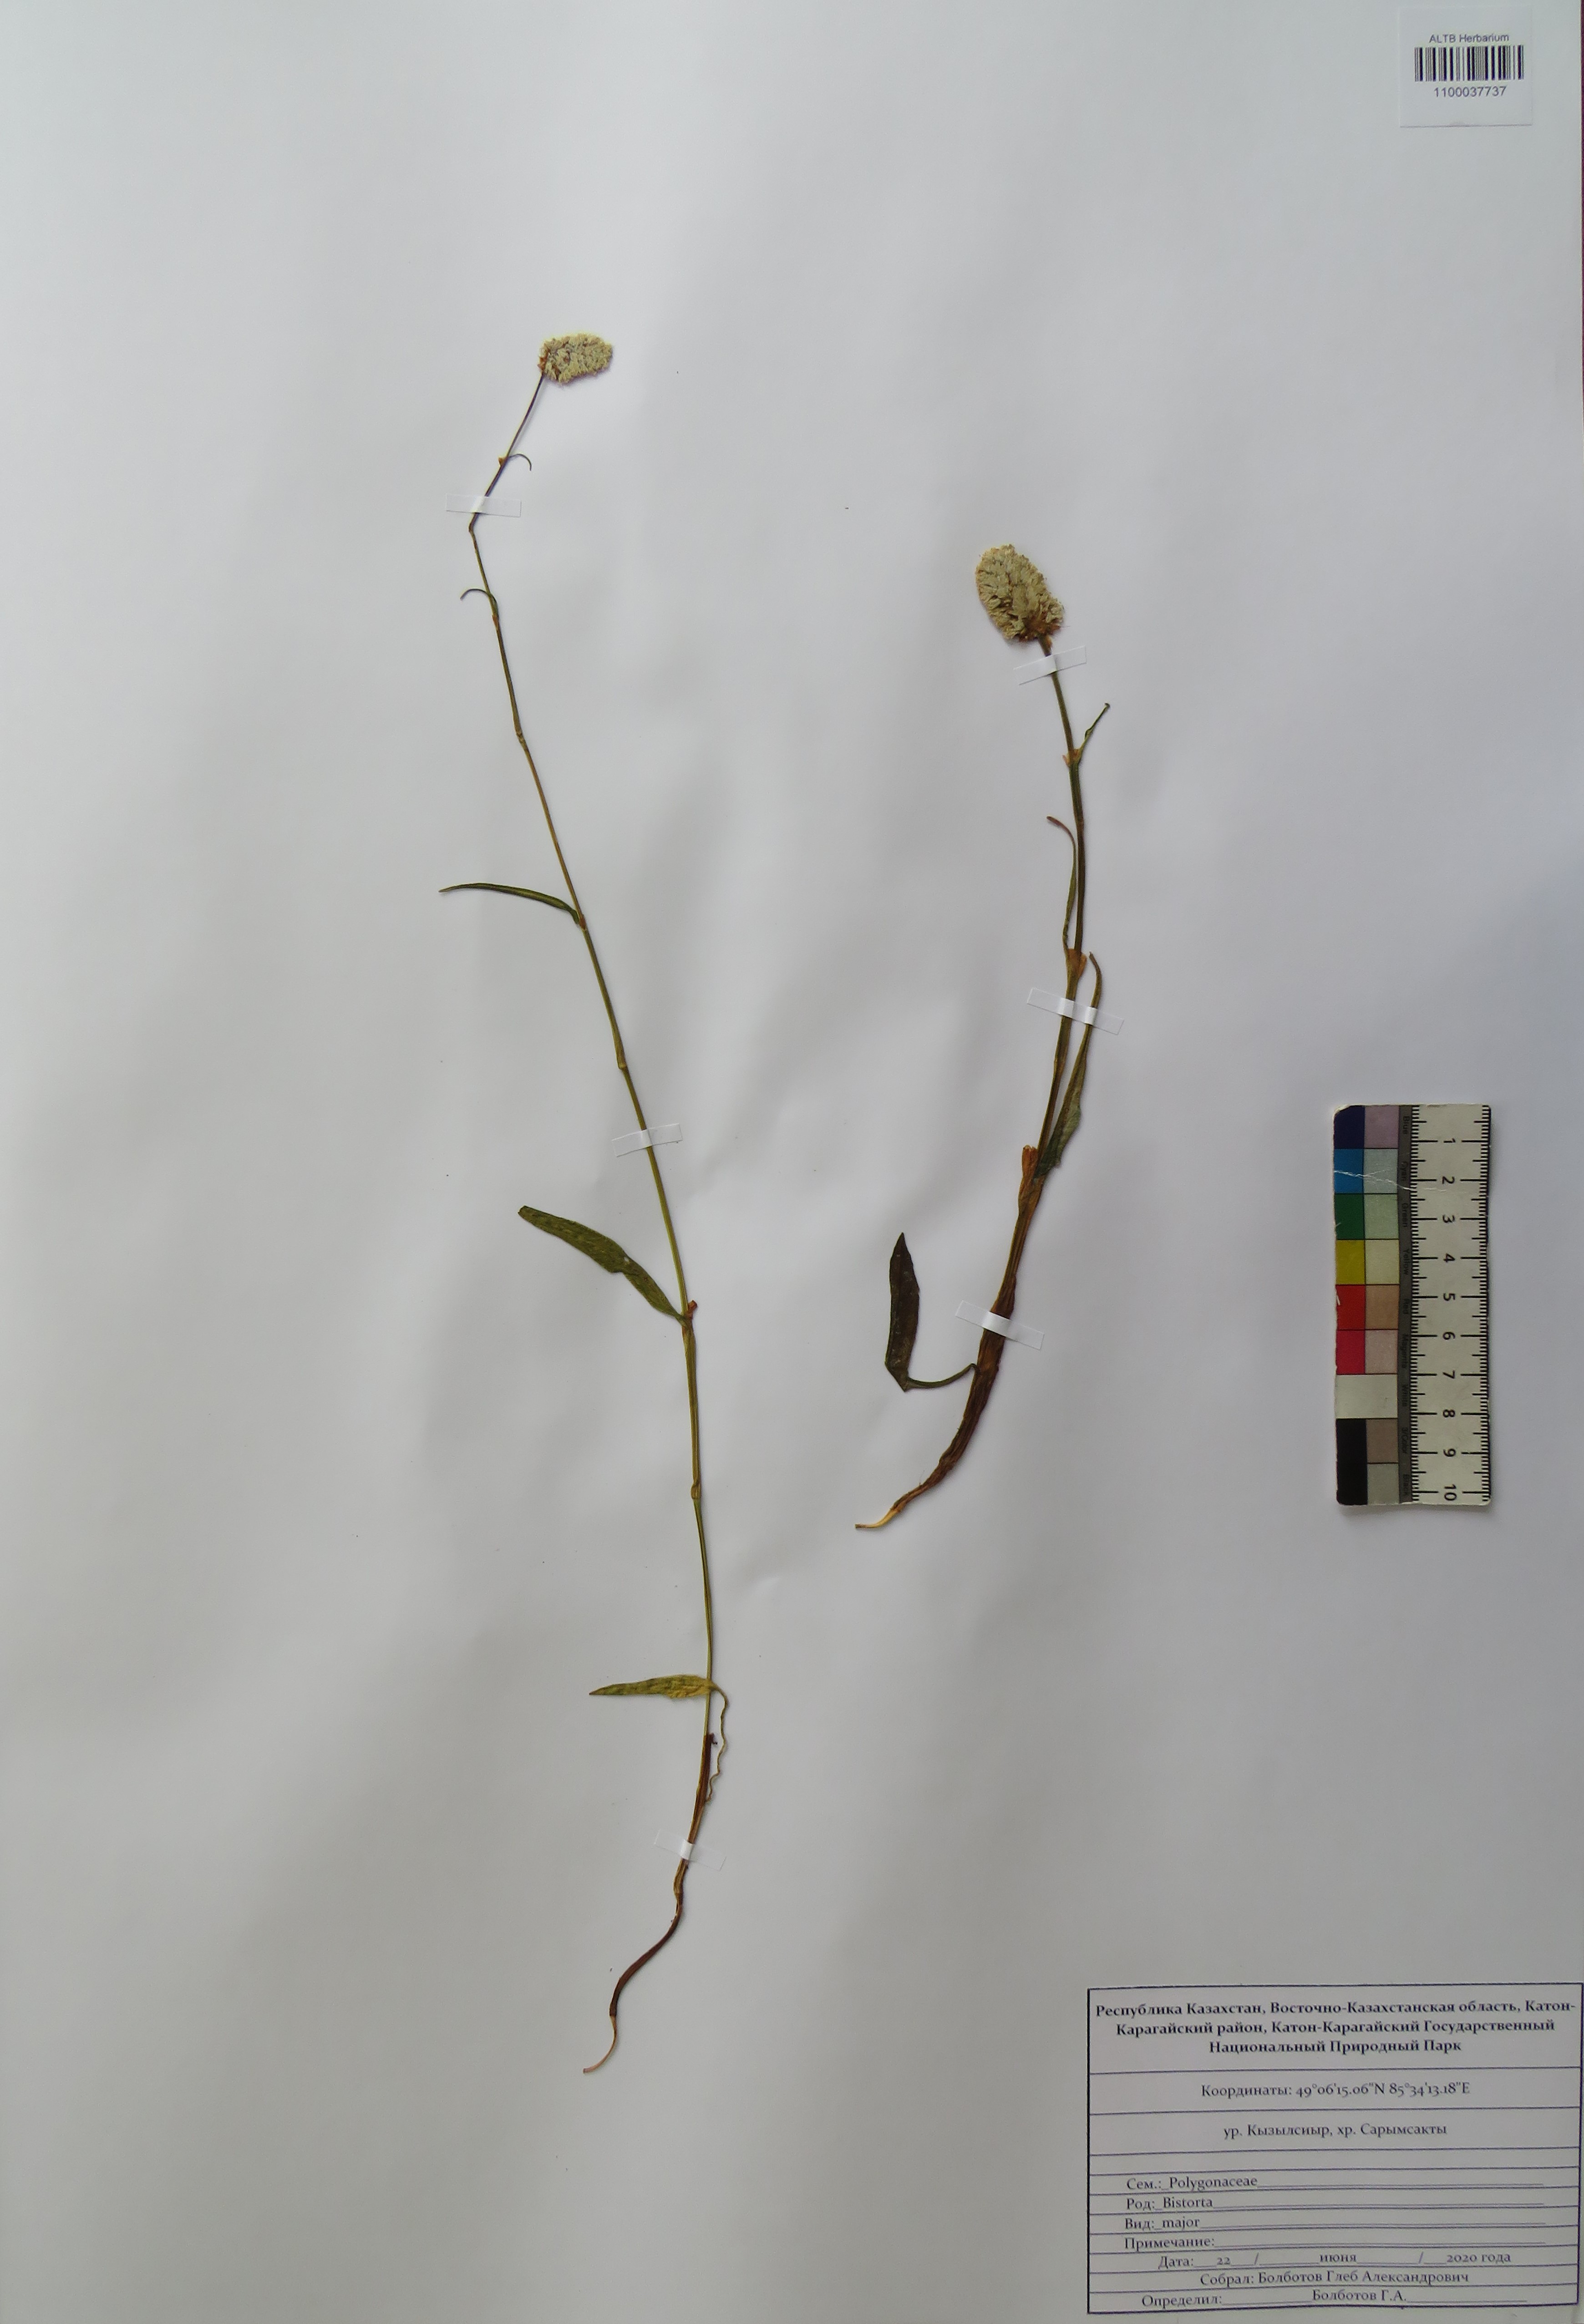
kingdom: Plantae
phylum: Tracheophyta
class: Magnoliopsida
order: Caryophyllales
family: Polygonaceae
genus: Bistorta
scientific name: Bistorta officinalis
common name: Common bistort
